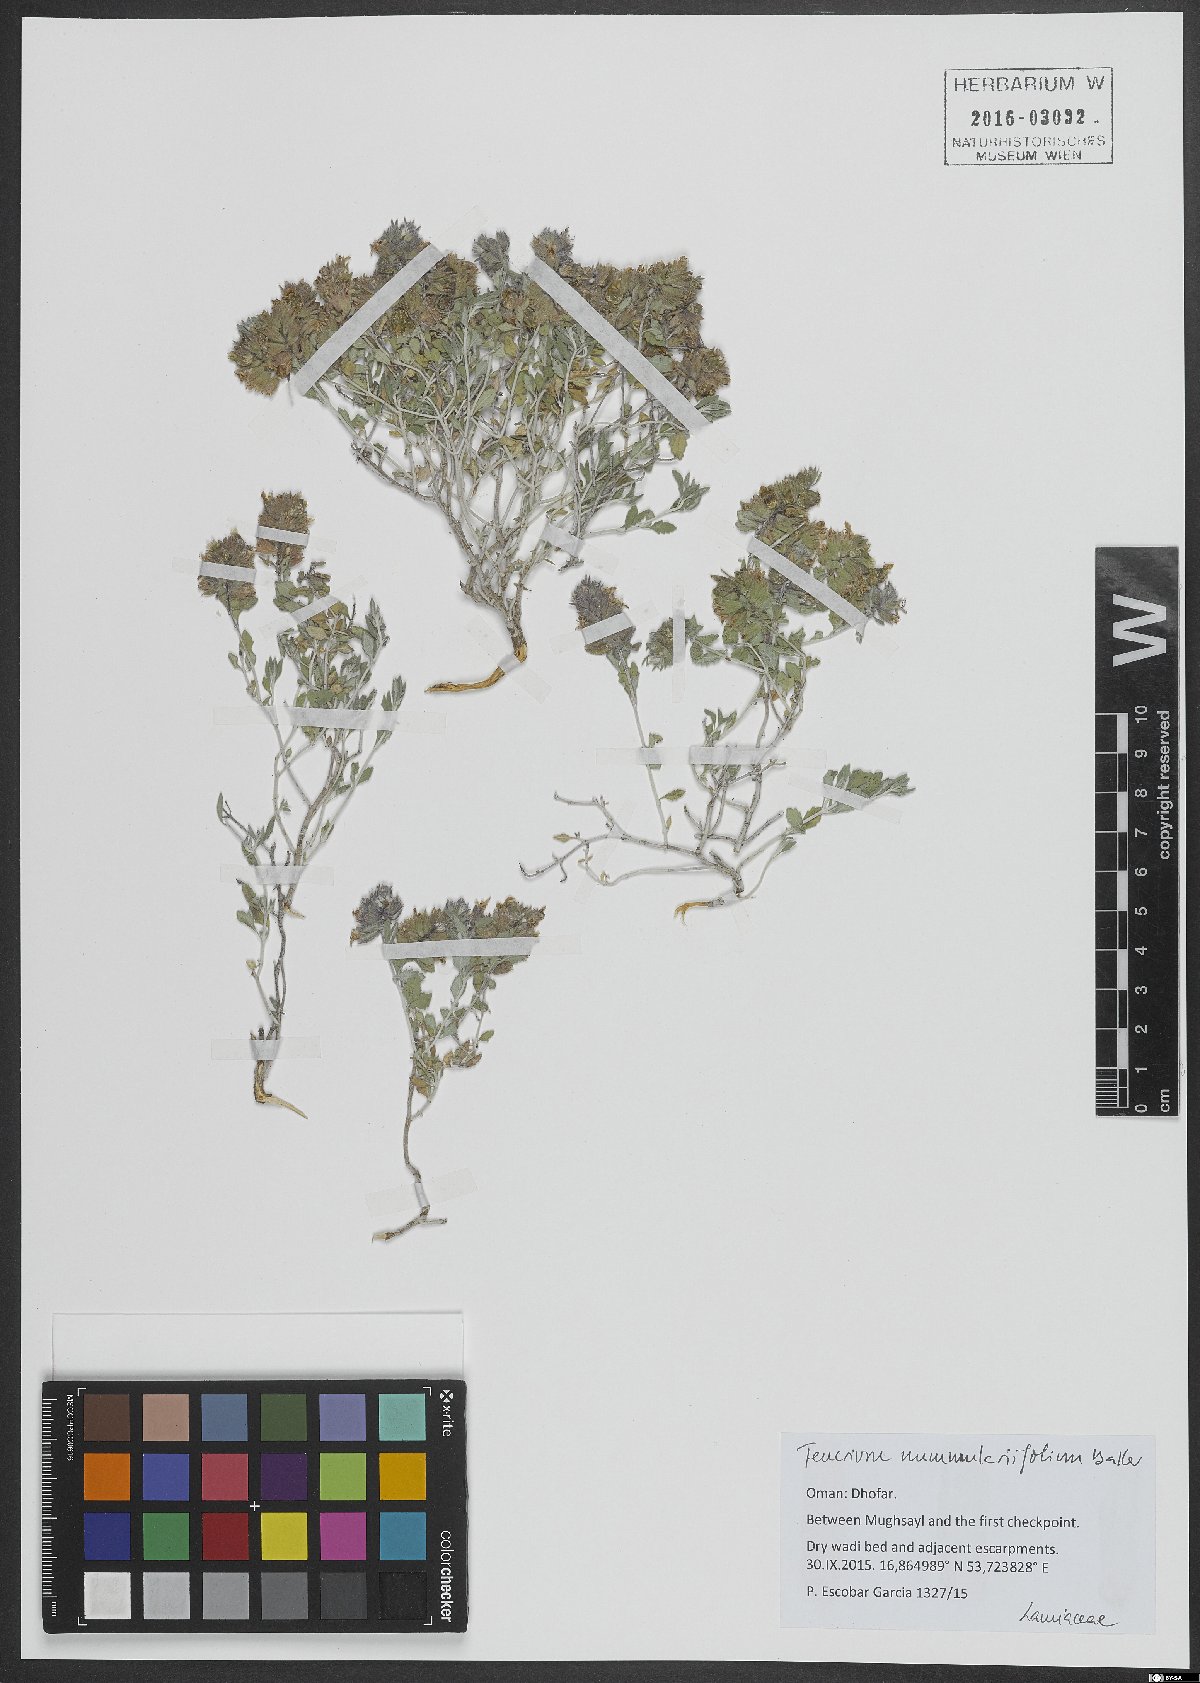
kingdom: Plantae
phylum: Tracheophyta
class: Magnoliopsida
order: Lamiales
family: Lamiaceae
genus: Teucrium
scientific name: Teucrium nummulariifolium
